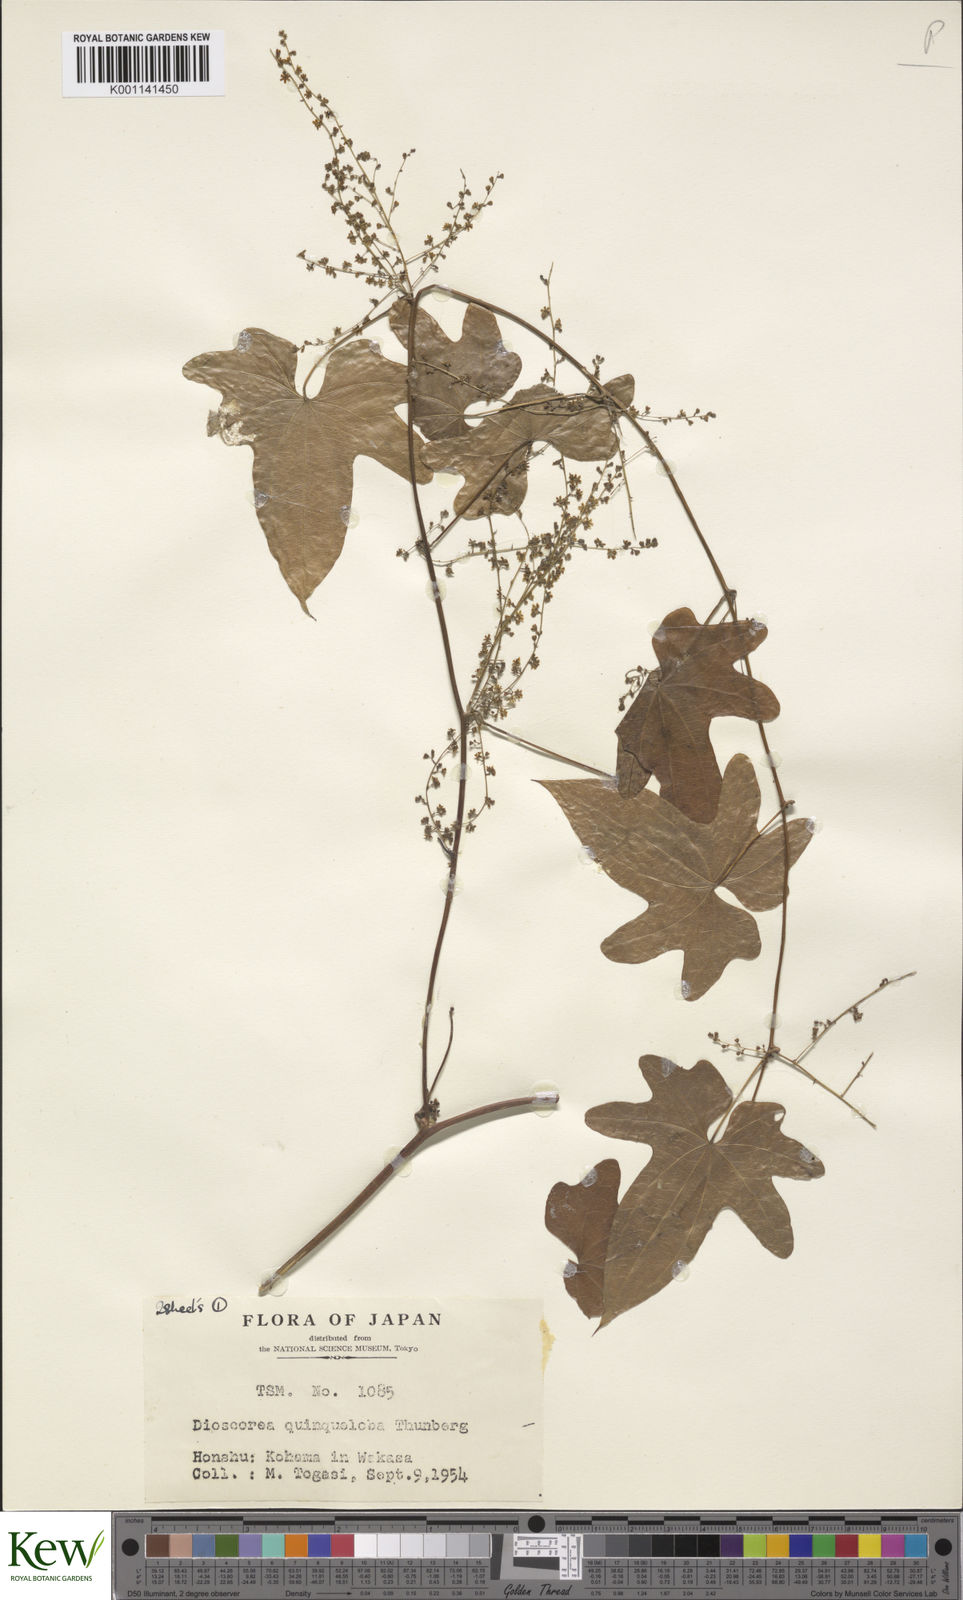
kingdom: Plantae
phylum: Tracheophyta
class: Liliopsida
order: Dioscoreales
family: Dioscoreaceae
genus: Dioscorea
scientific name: Dioscorea quinquelobata
